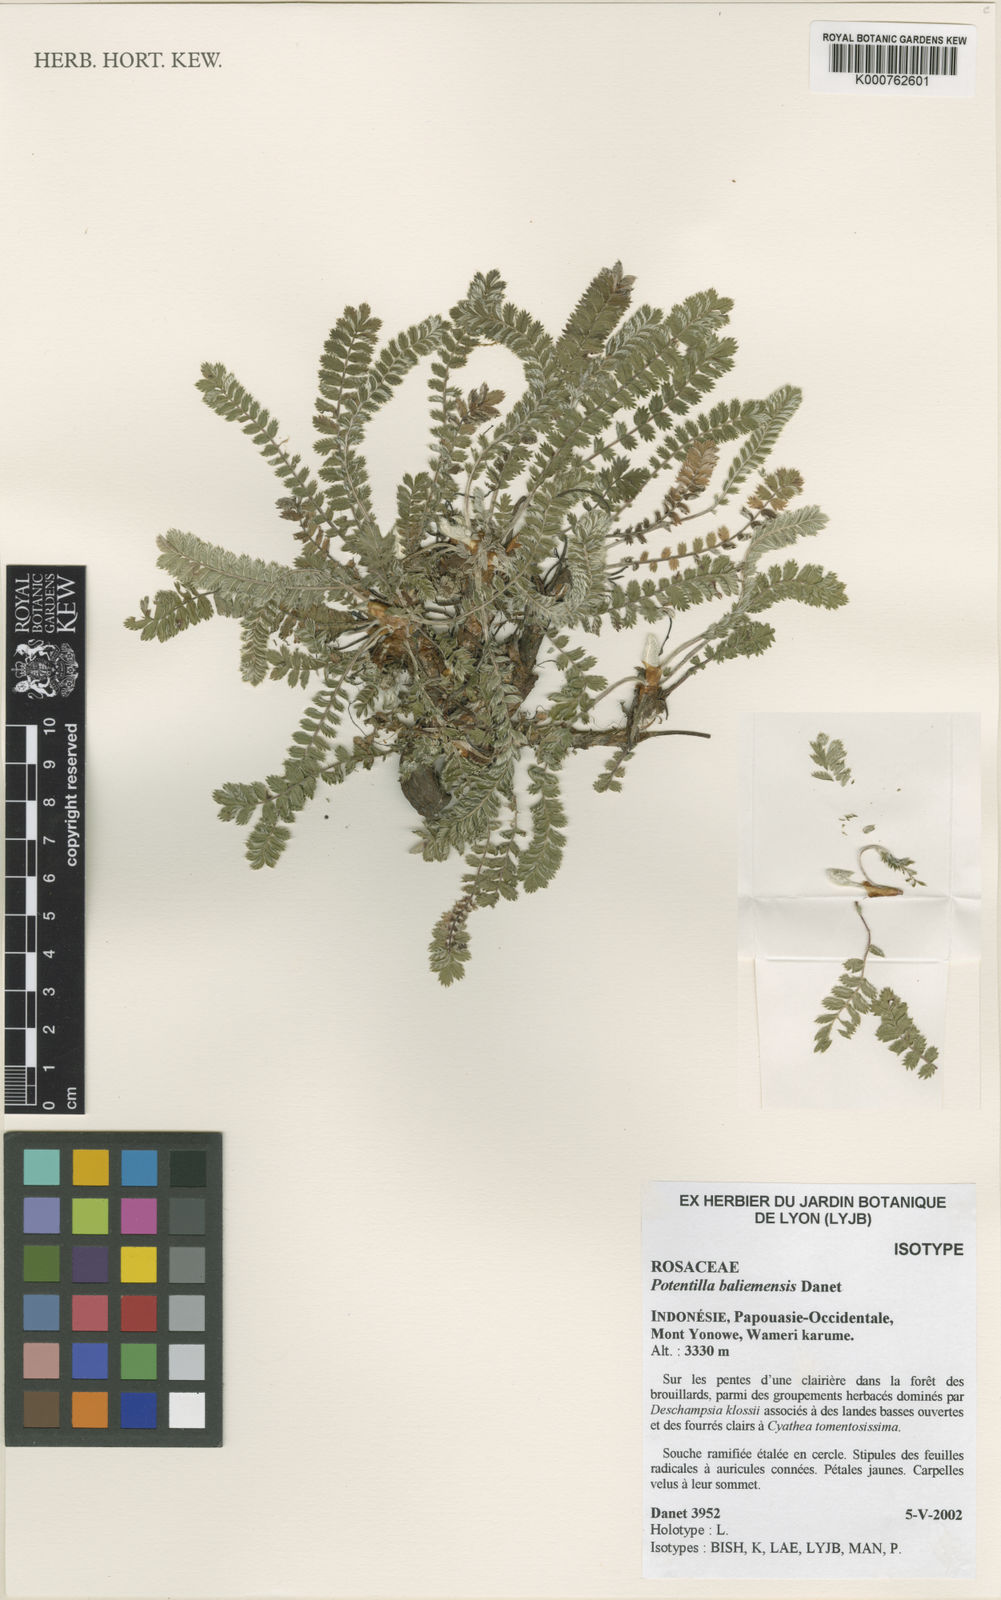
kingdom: Plantae
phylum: Tracheophyta
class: Magnoliopsida
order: Rosales
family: Rosaceae
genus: Argentina
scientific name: Argentina baliemensis
